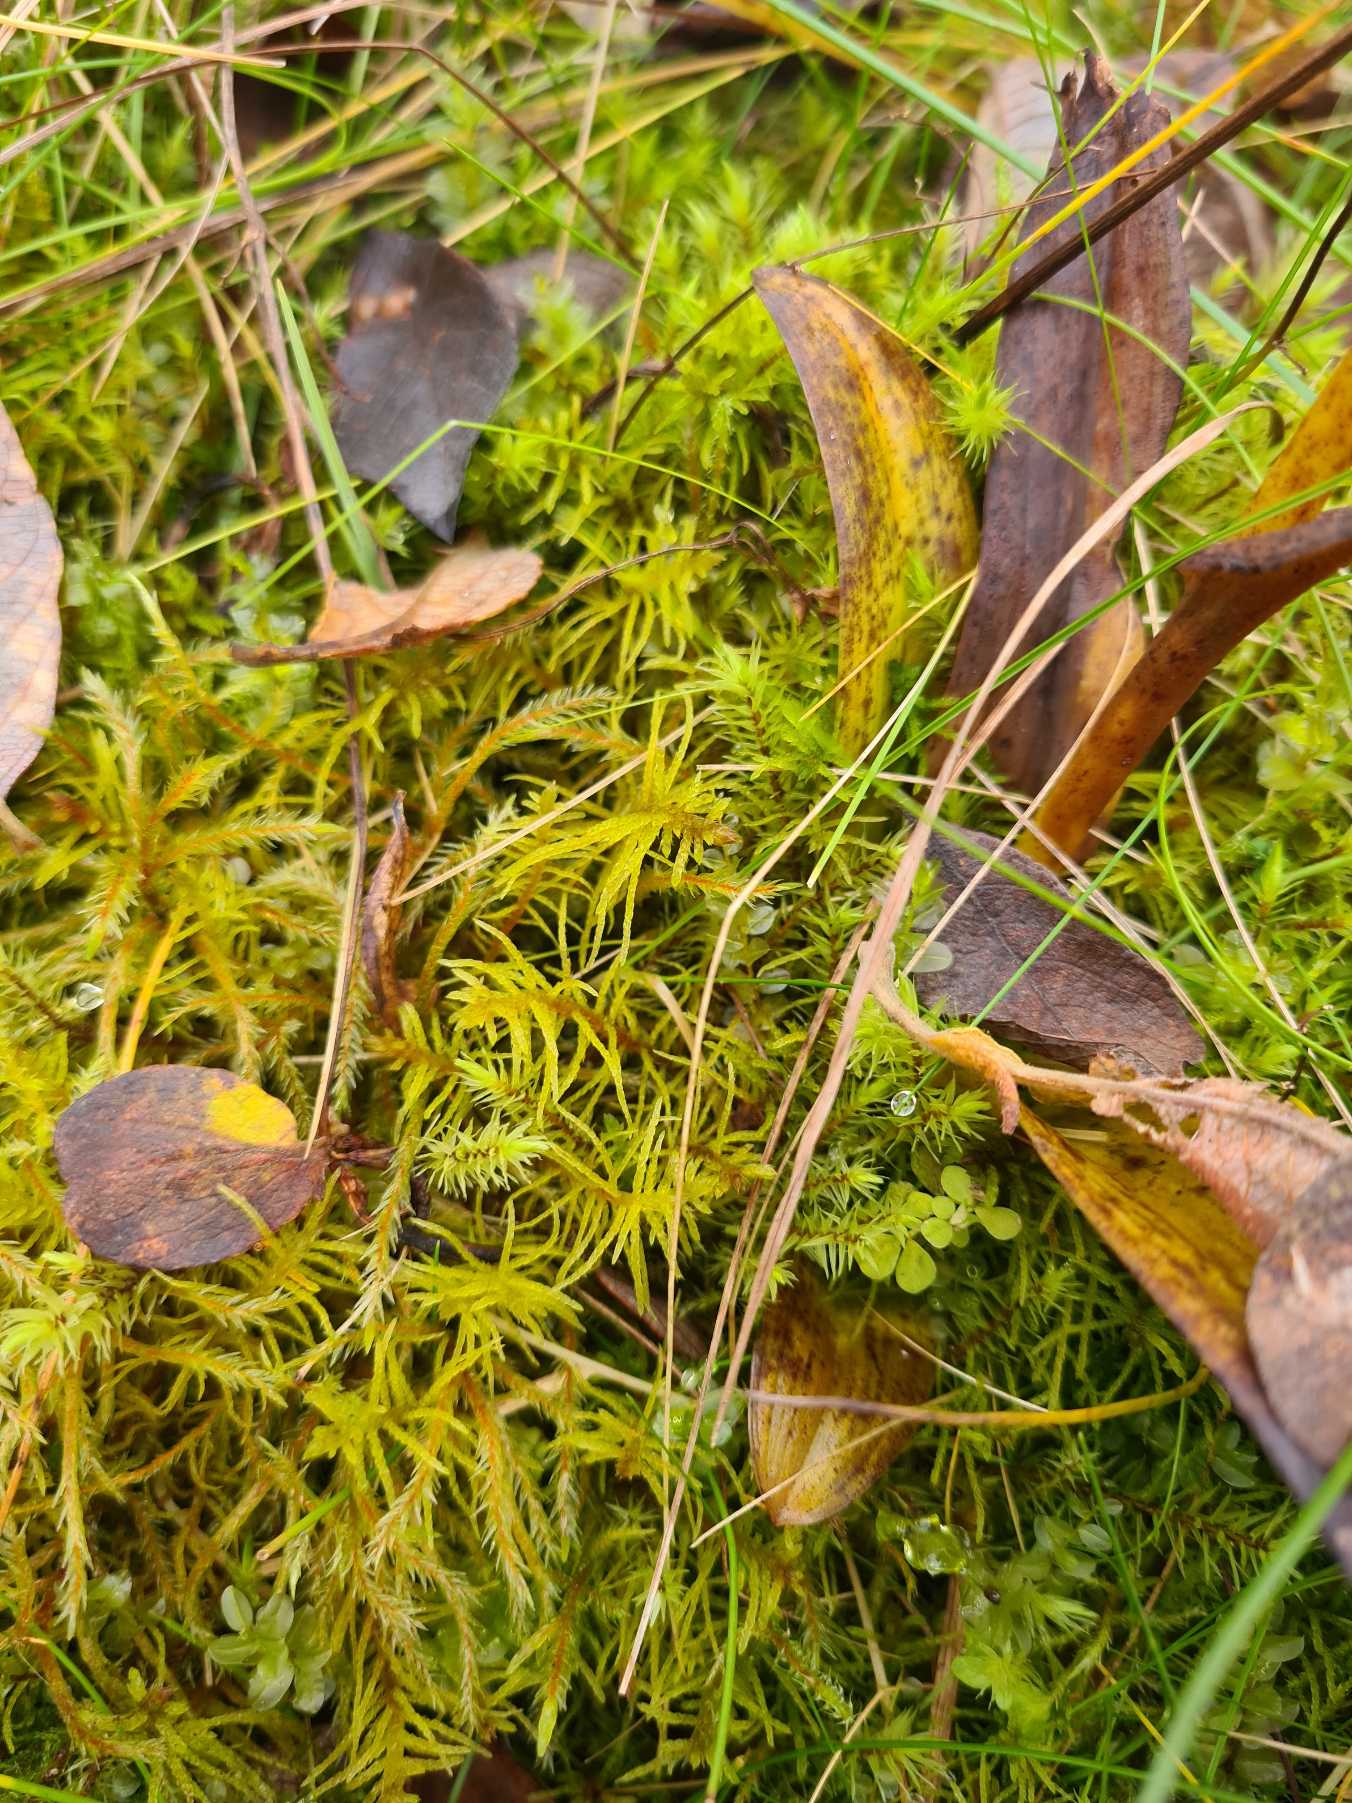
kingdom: Plantae
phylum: Bryophyta
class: Bryopsida
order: Hypnales
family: Helodiaceae
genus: Helodium
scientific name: Helodium blandowii
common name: Kær-gyldenmos
